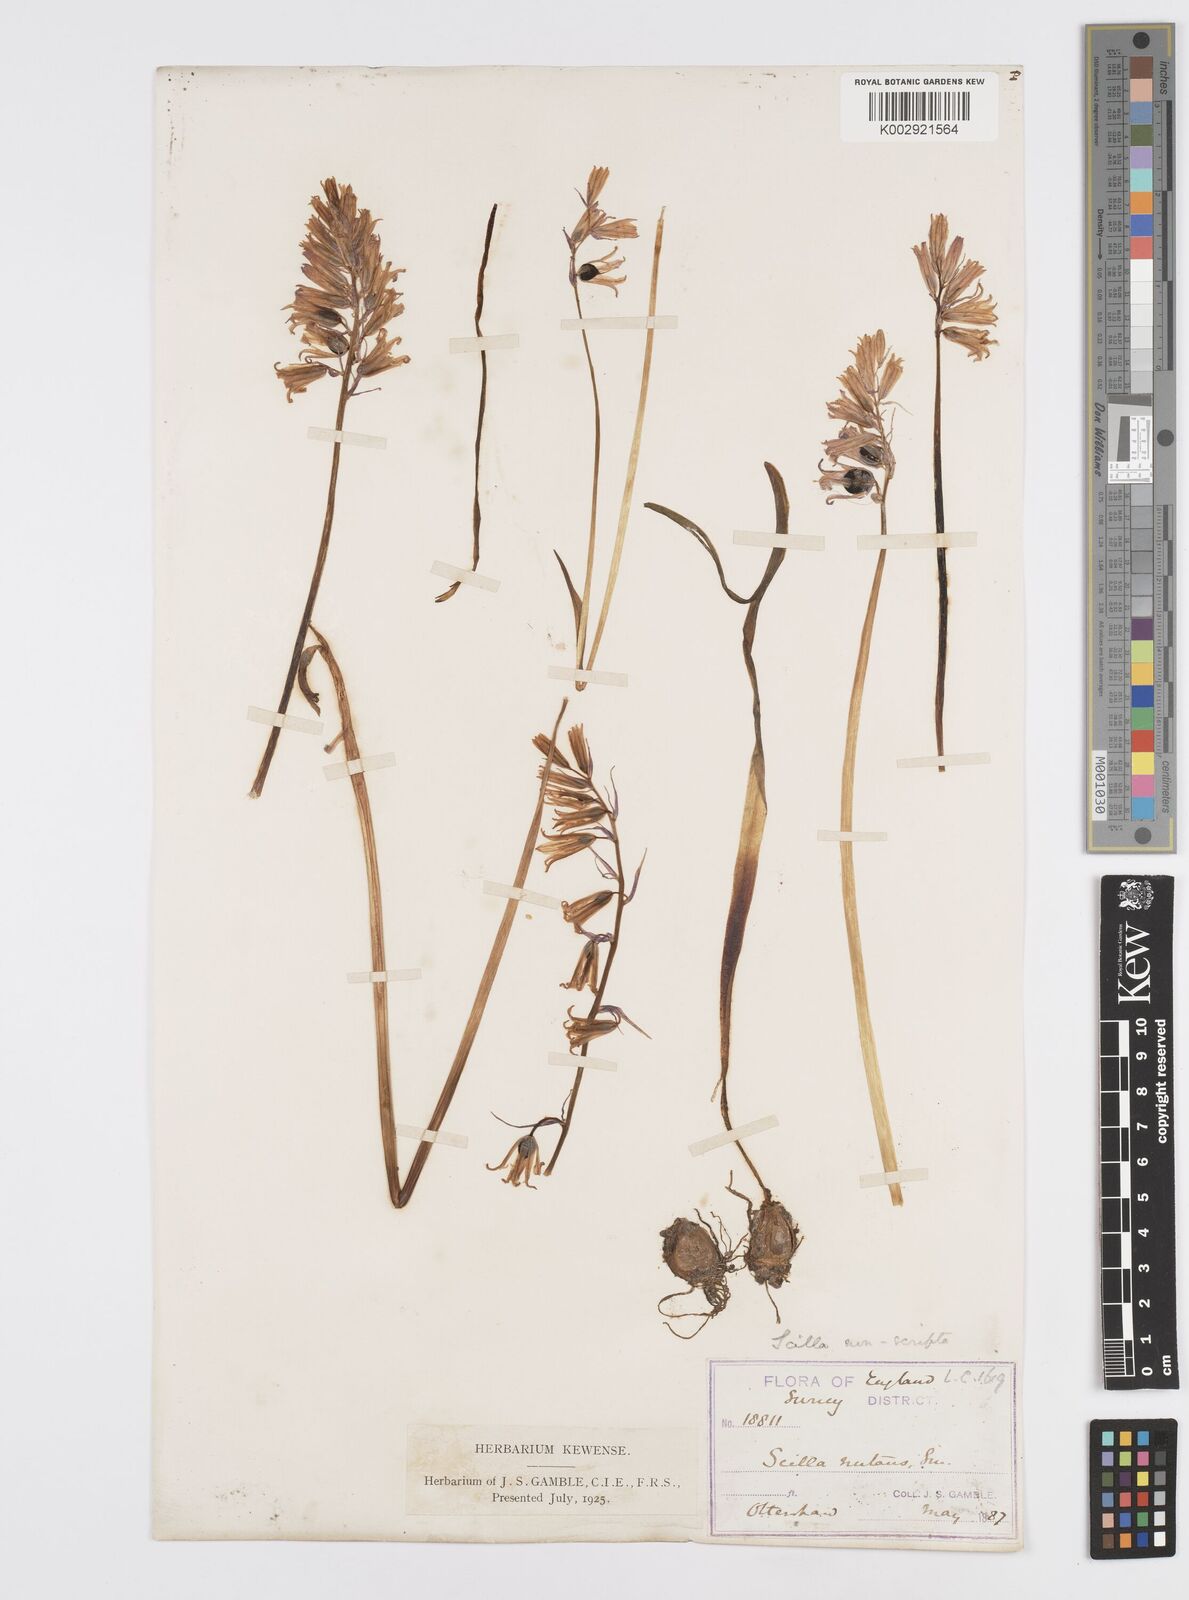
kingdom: Plantae
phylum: Tracheophyta
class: Liliopsida
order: Asparagales
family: Asparagaceae
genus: Hyacinthoides
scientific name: Hyacinthoides non-scripta
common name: Bluebell
